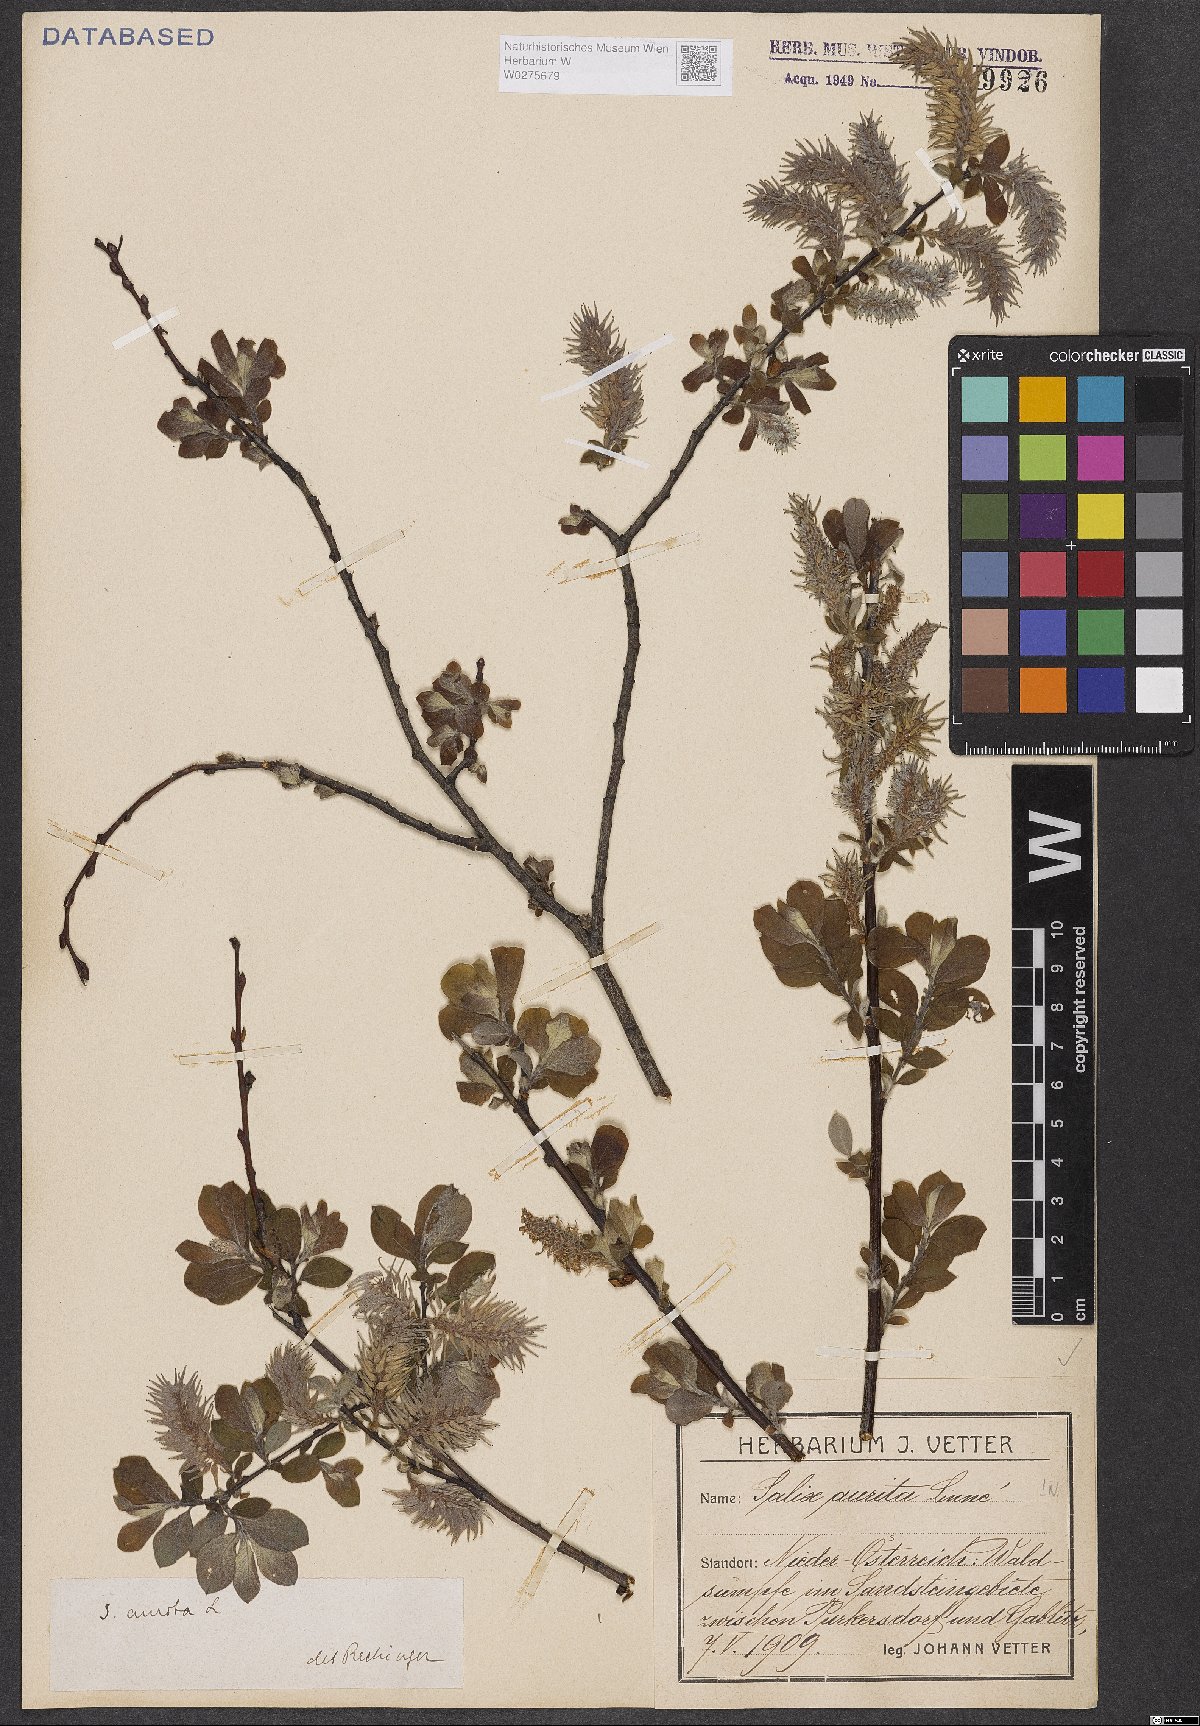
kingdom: Plantae
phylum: Tracheophyta
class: Magnoliopsida
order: Malpighiales
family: Salicaceae
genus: Salix
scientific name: Salix aurita
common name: Eared willow
